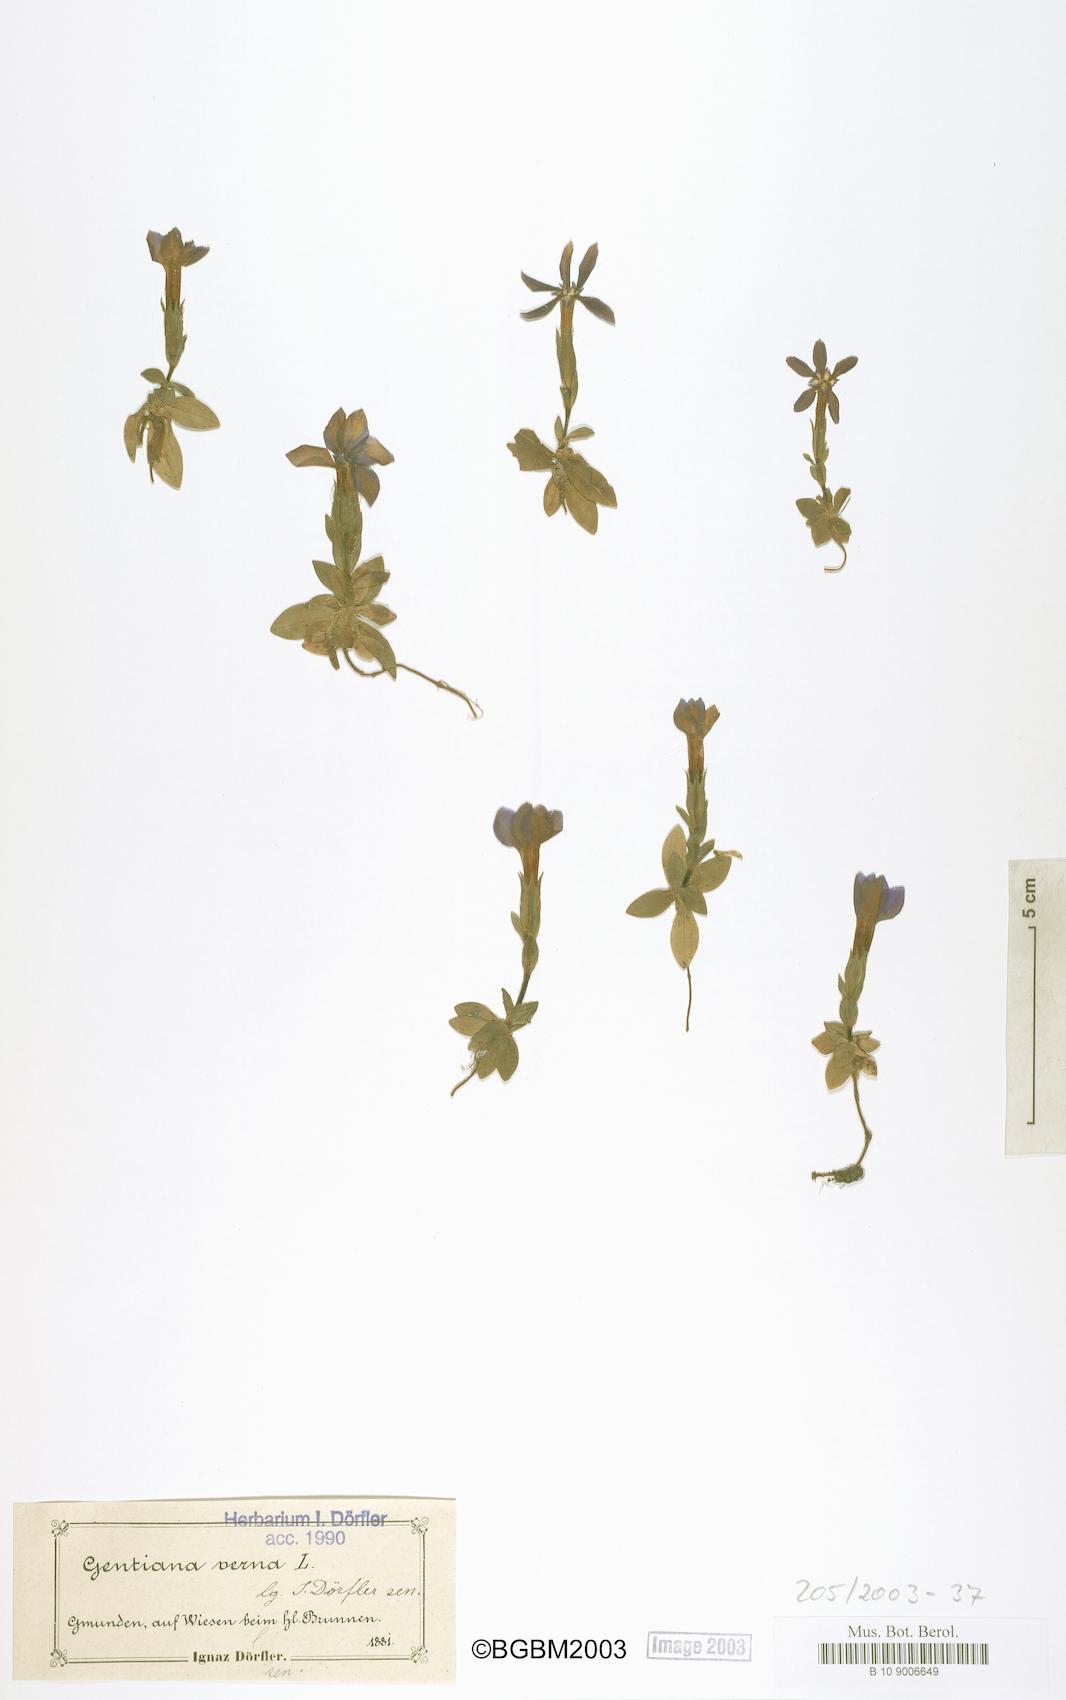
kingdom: Plantae
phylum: Tracheophyta
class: Magnoliopsida
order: Gentianales
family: Gentianaceae
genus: Gentiana
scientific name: Gentiana verna
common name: Spring gentian
